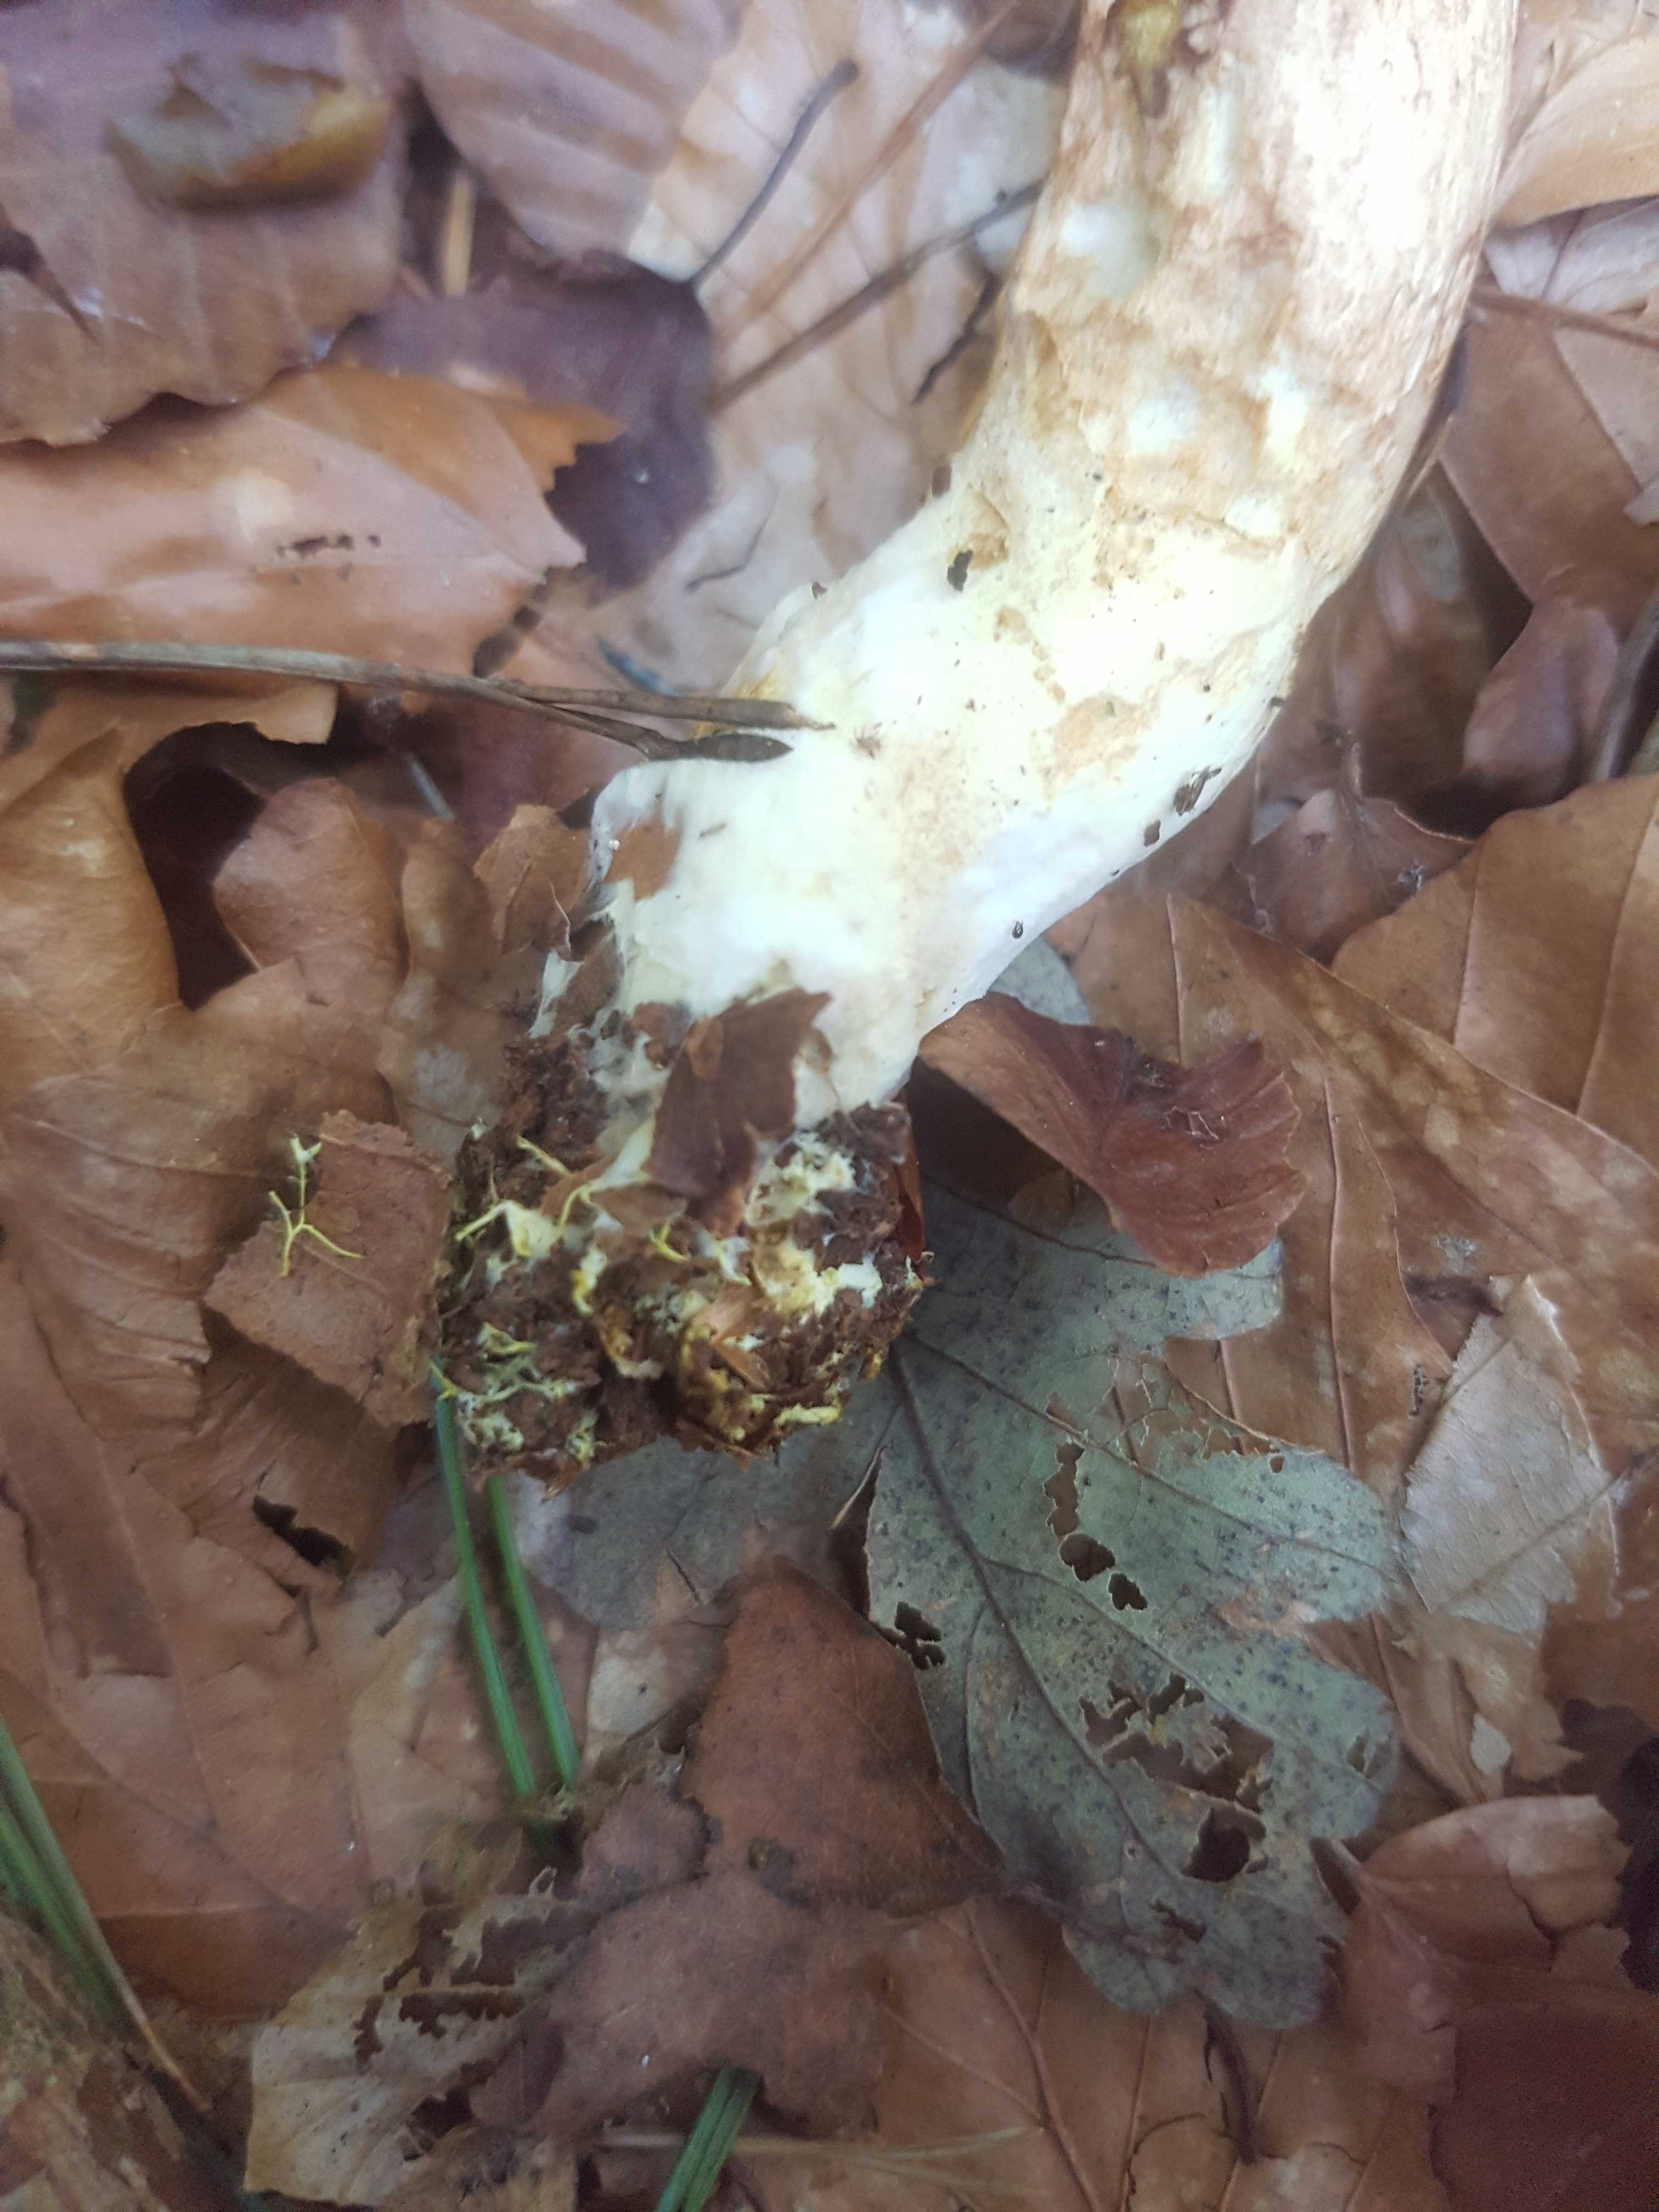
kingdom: Fungi
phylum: Basidiomycota
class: Agaricomycetes
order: Boletales
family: Boletaceae
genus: Xerocomus
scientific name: Xerocomus ferrugineus
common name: vaskeskinds-rørhat
